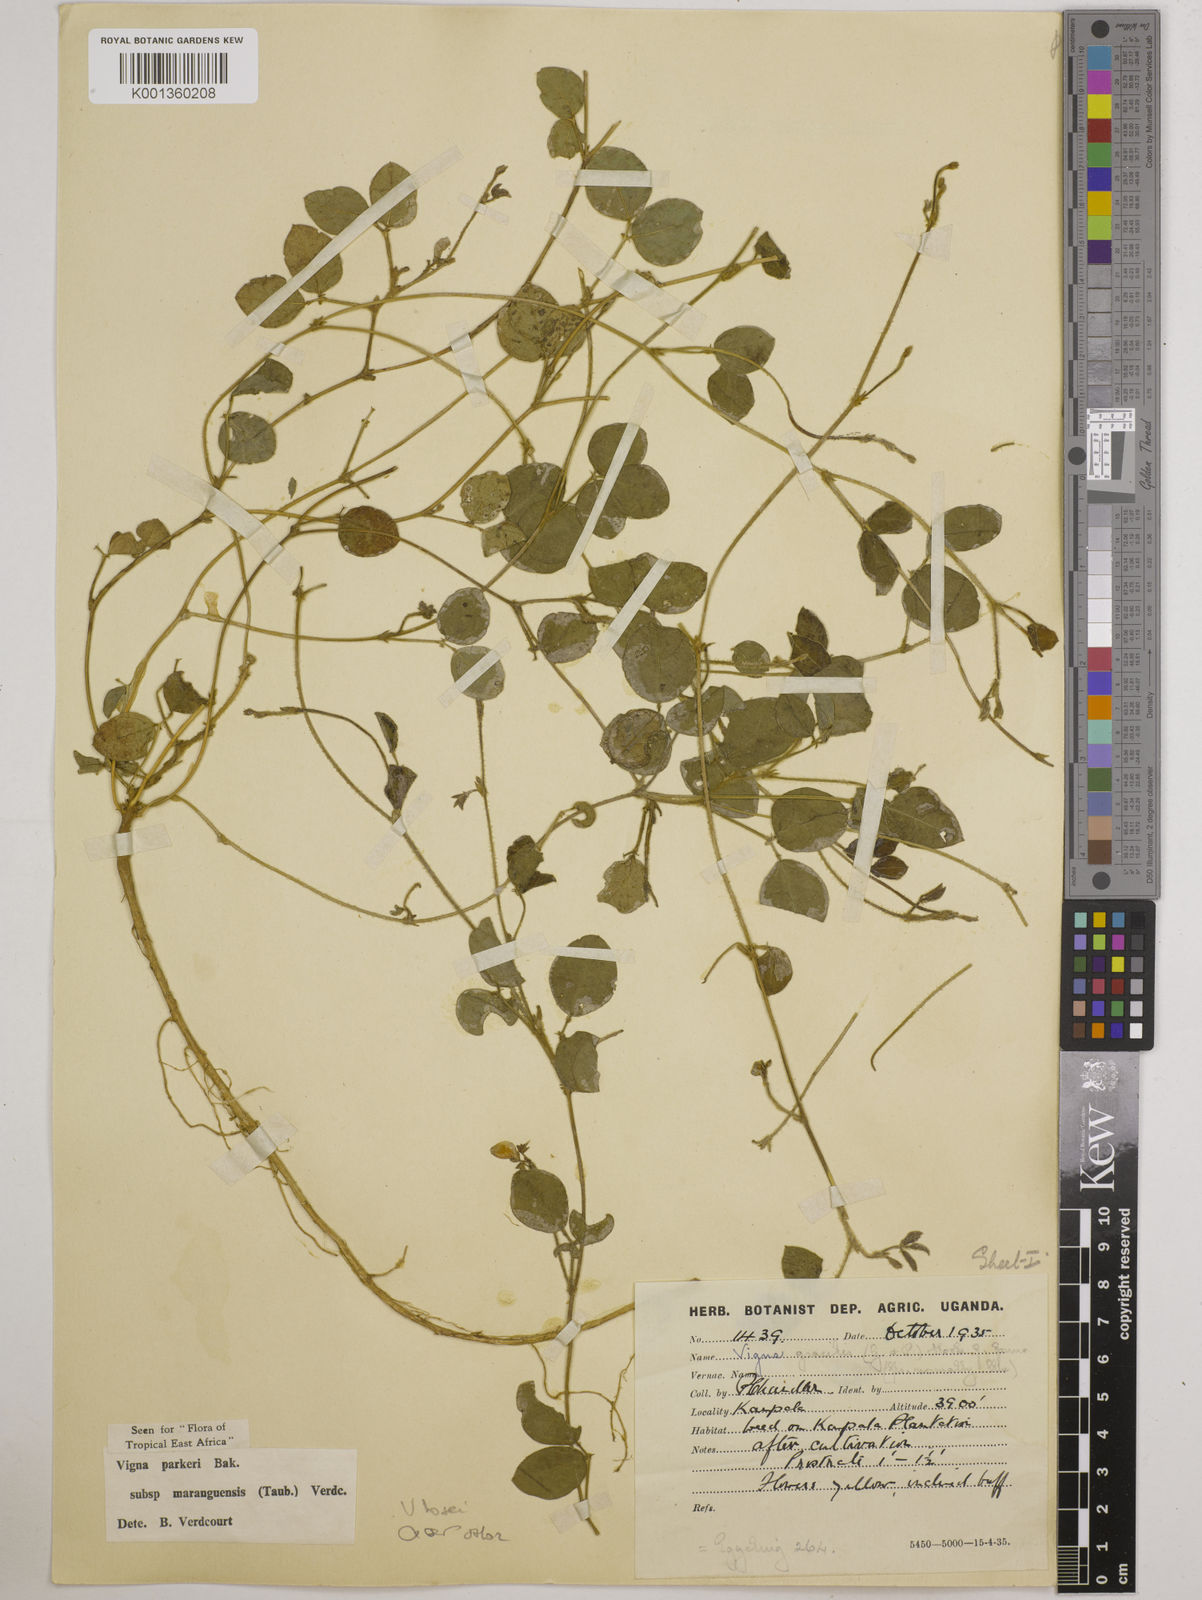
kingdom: Plantae
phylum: Tracheophyta
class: Magnoliopsida
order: Fabales
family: Fabaceae
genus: Vigna
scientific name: Vigna hosei
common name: Sarawak-bean
